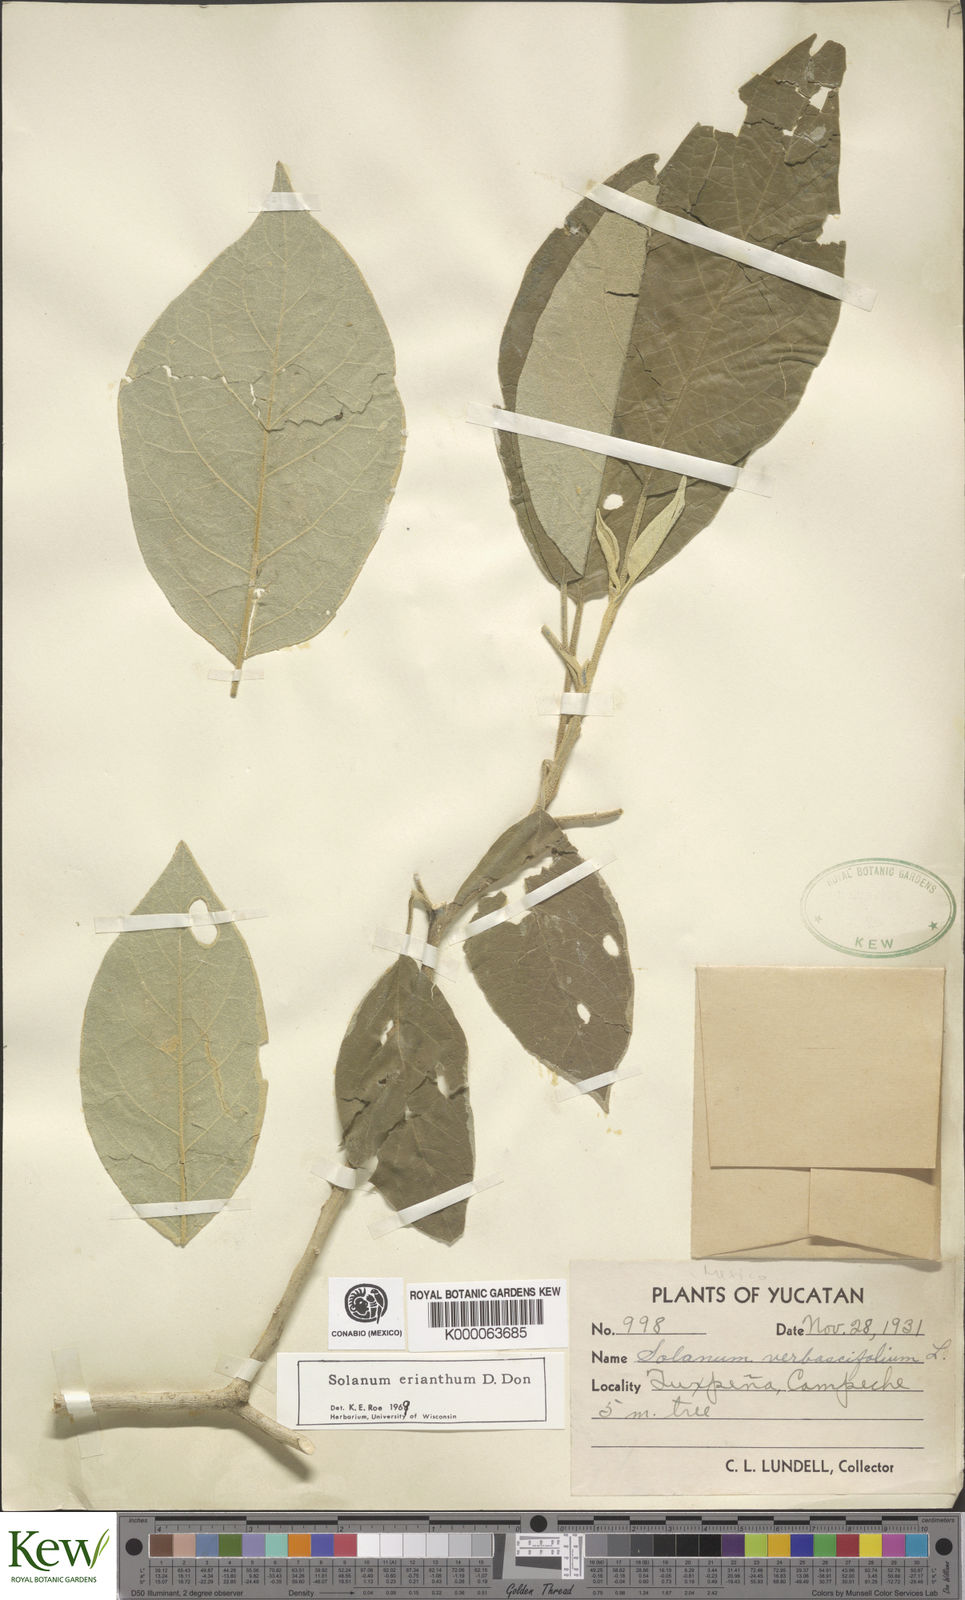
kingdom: Plantae
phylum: Tracheophyta
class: Magnoliopsida
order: Solanales
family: Solanaceae
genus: Solanum
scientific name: Solanum erianthum
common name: Tobacco-tree
